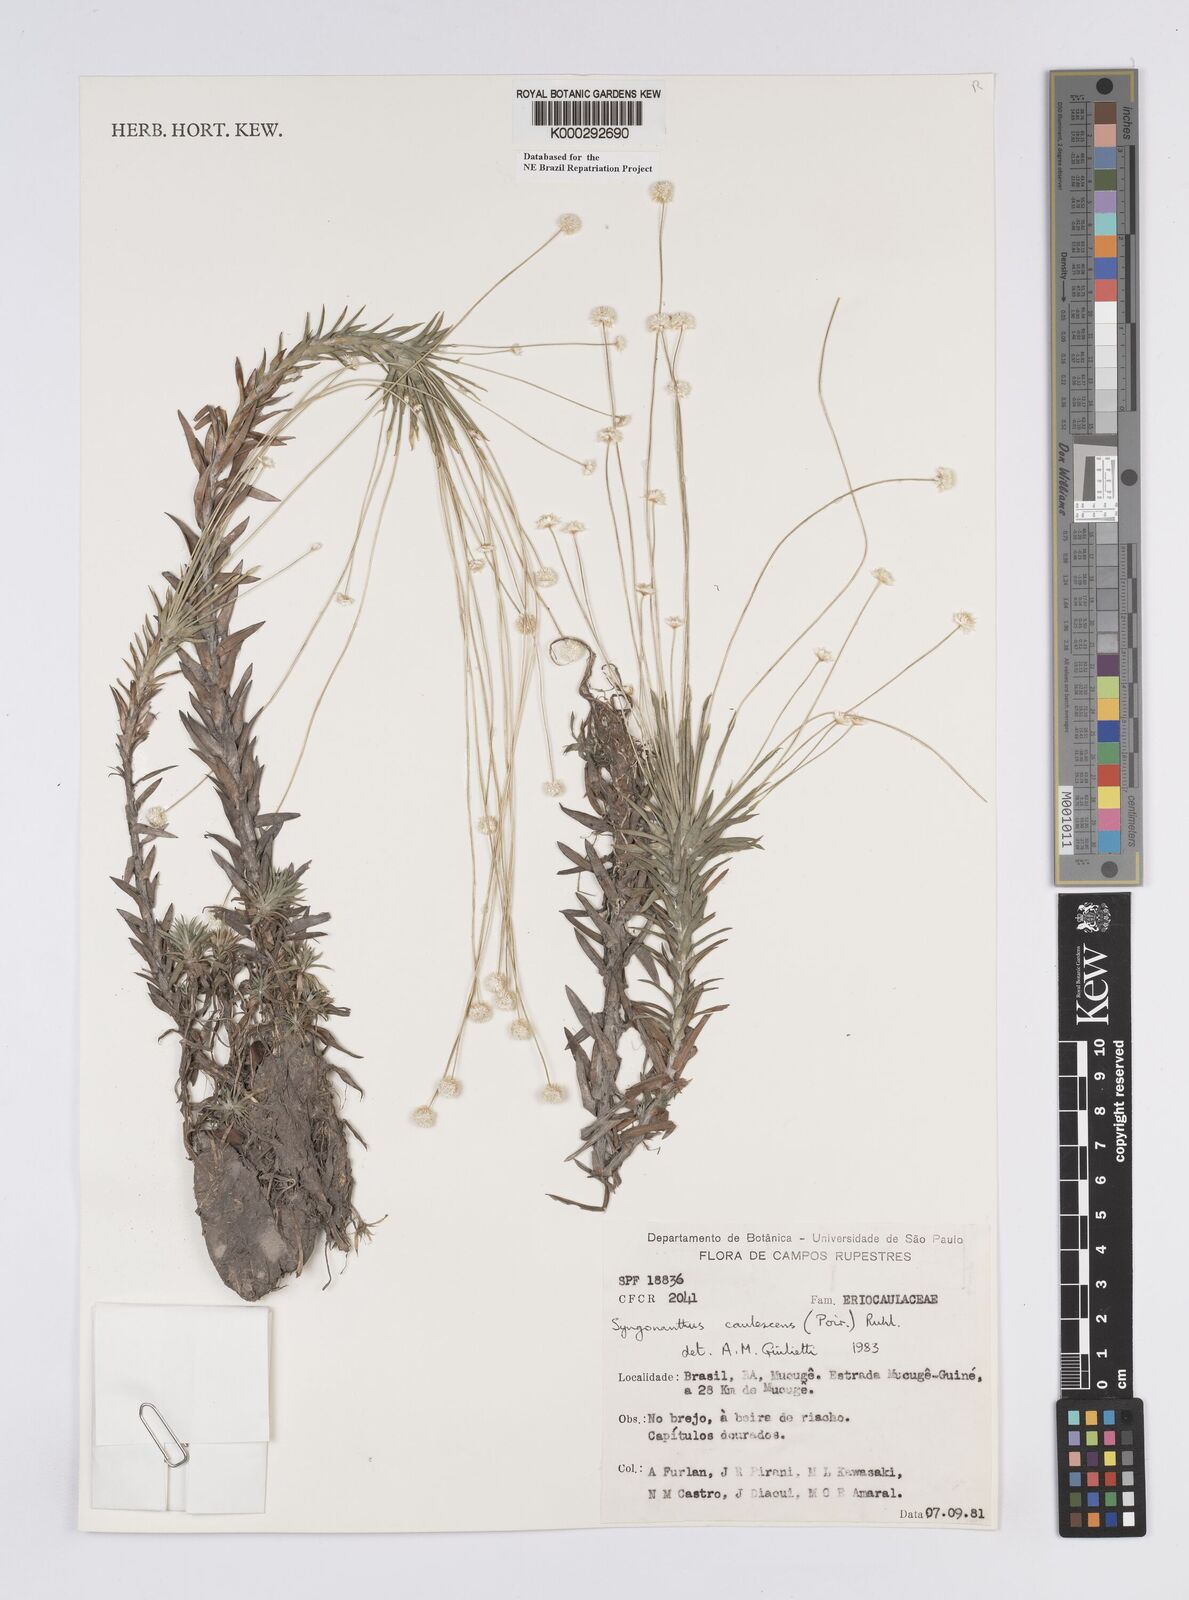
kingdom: Plantae
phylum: Tracheophyta
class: Liliopsida
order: Poales
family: Eriocaulaceae
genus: Syngonanthus
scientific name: Syngonanthus caulescens
